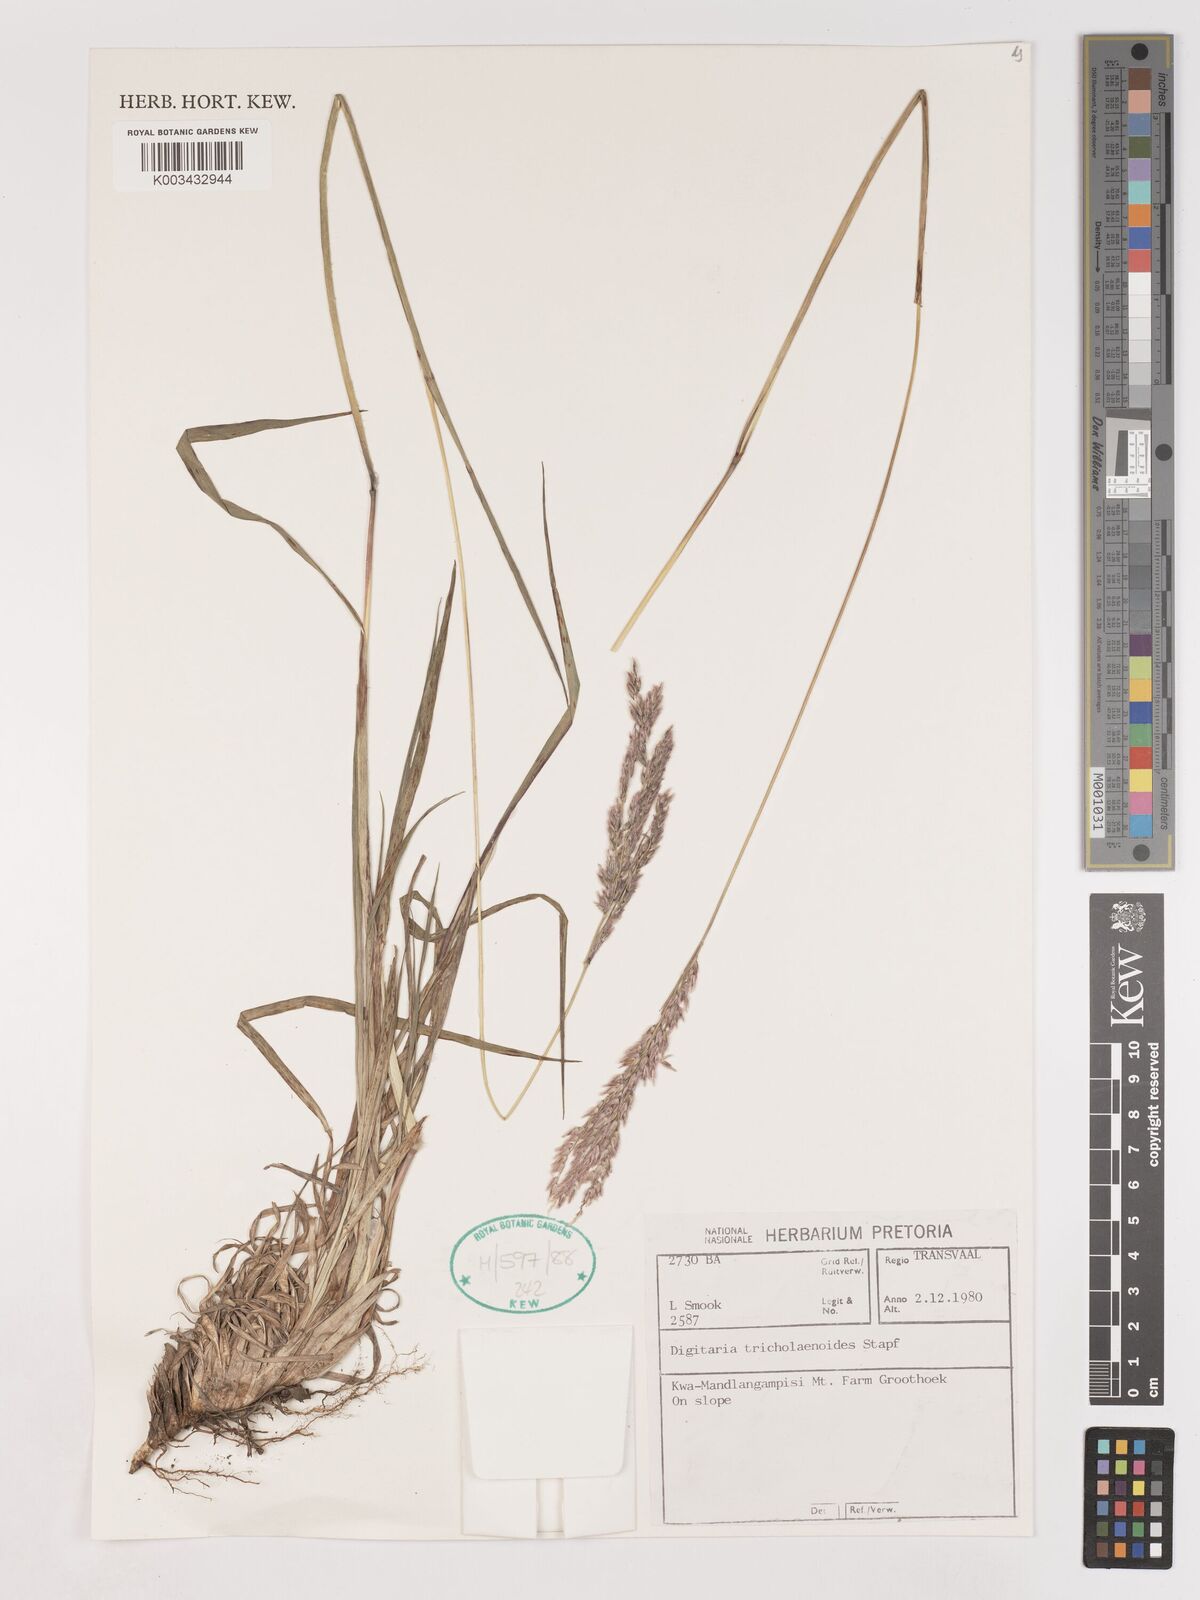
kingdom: Plantae
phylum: Tracheophyta
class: Liliopsida
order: Poales
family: Poaceae
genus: Digitaria
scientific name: Digitaria tricholaenoides
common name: Purple finger grass
